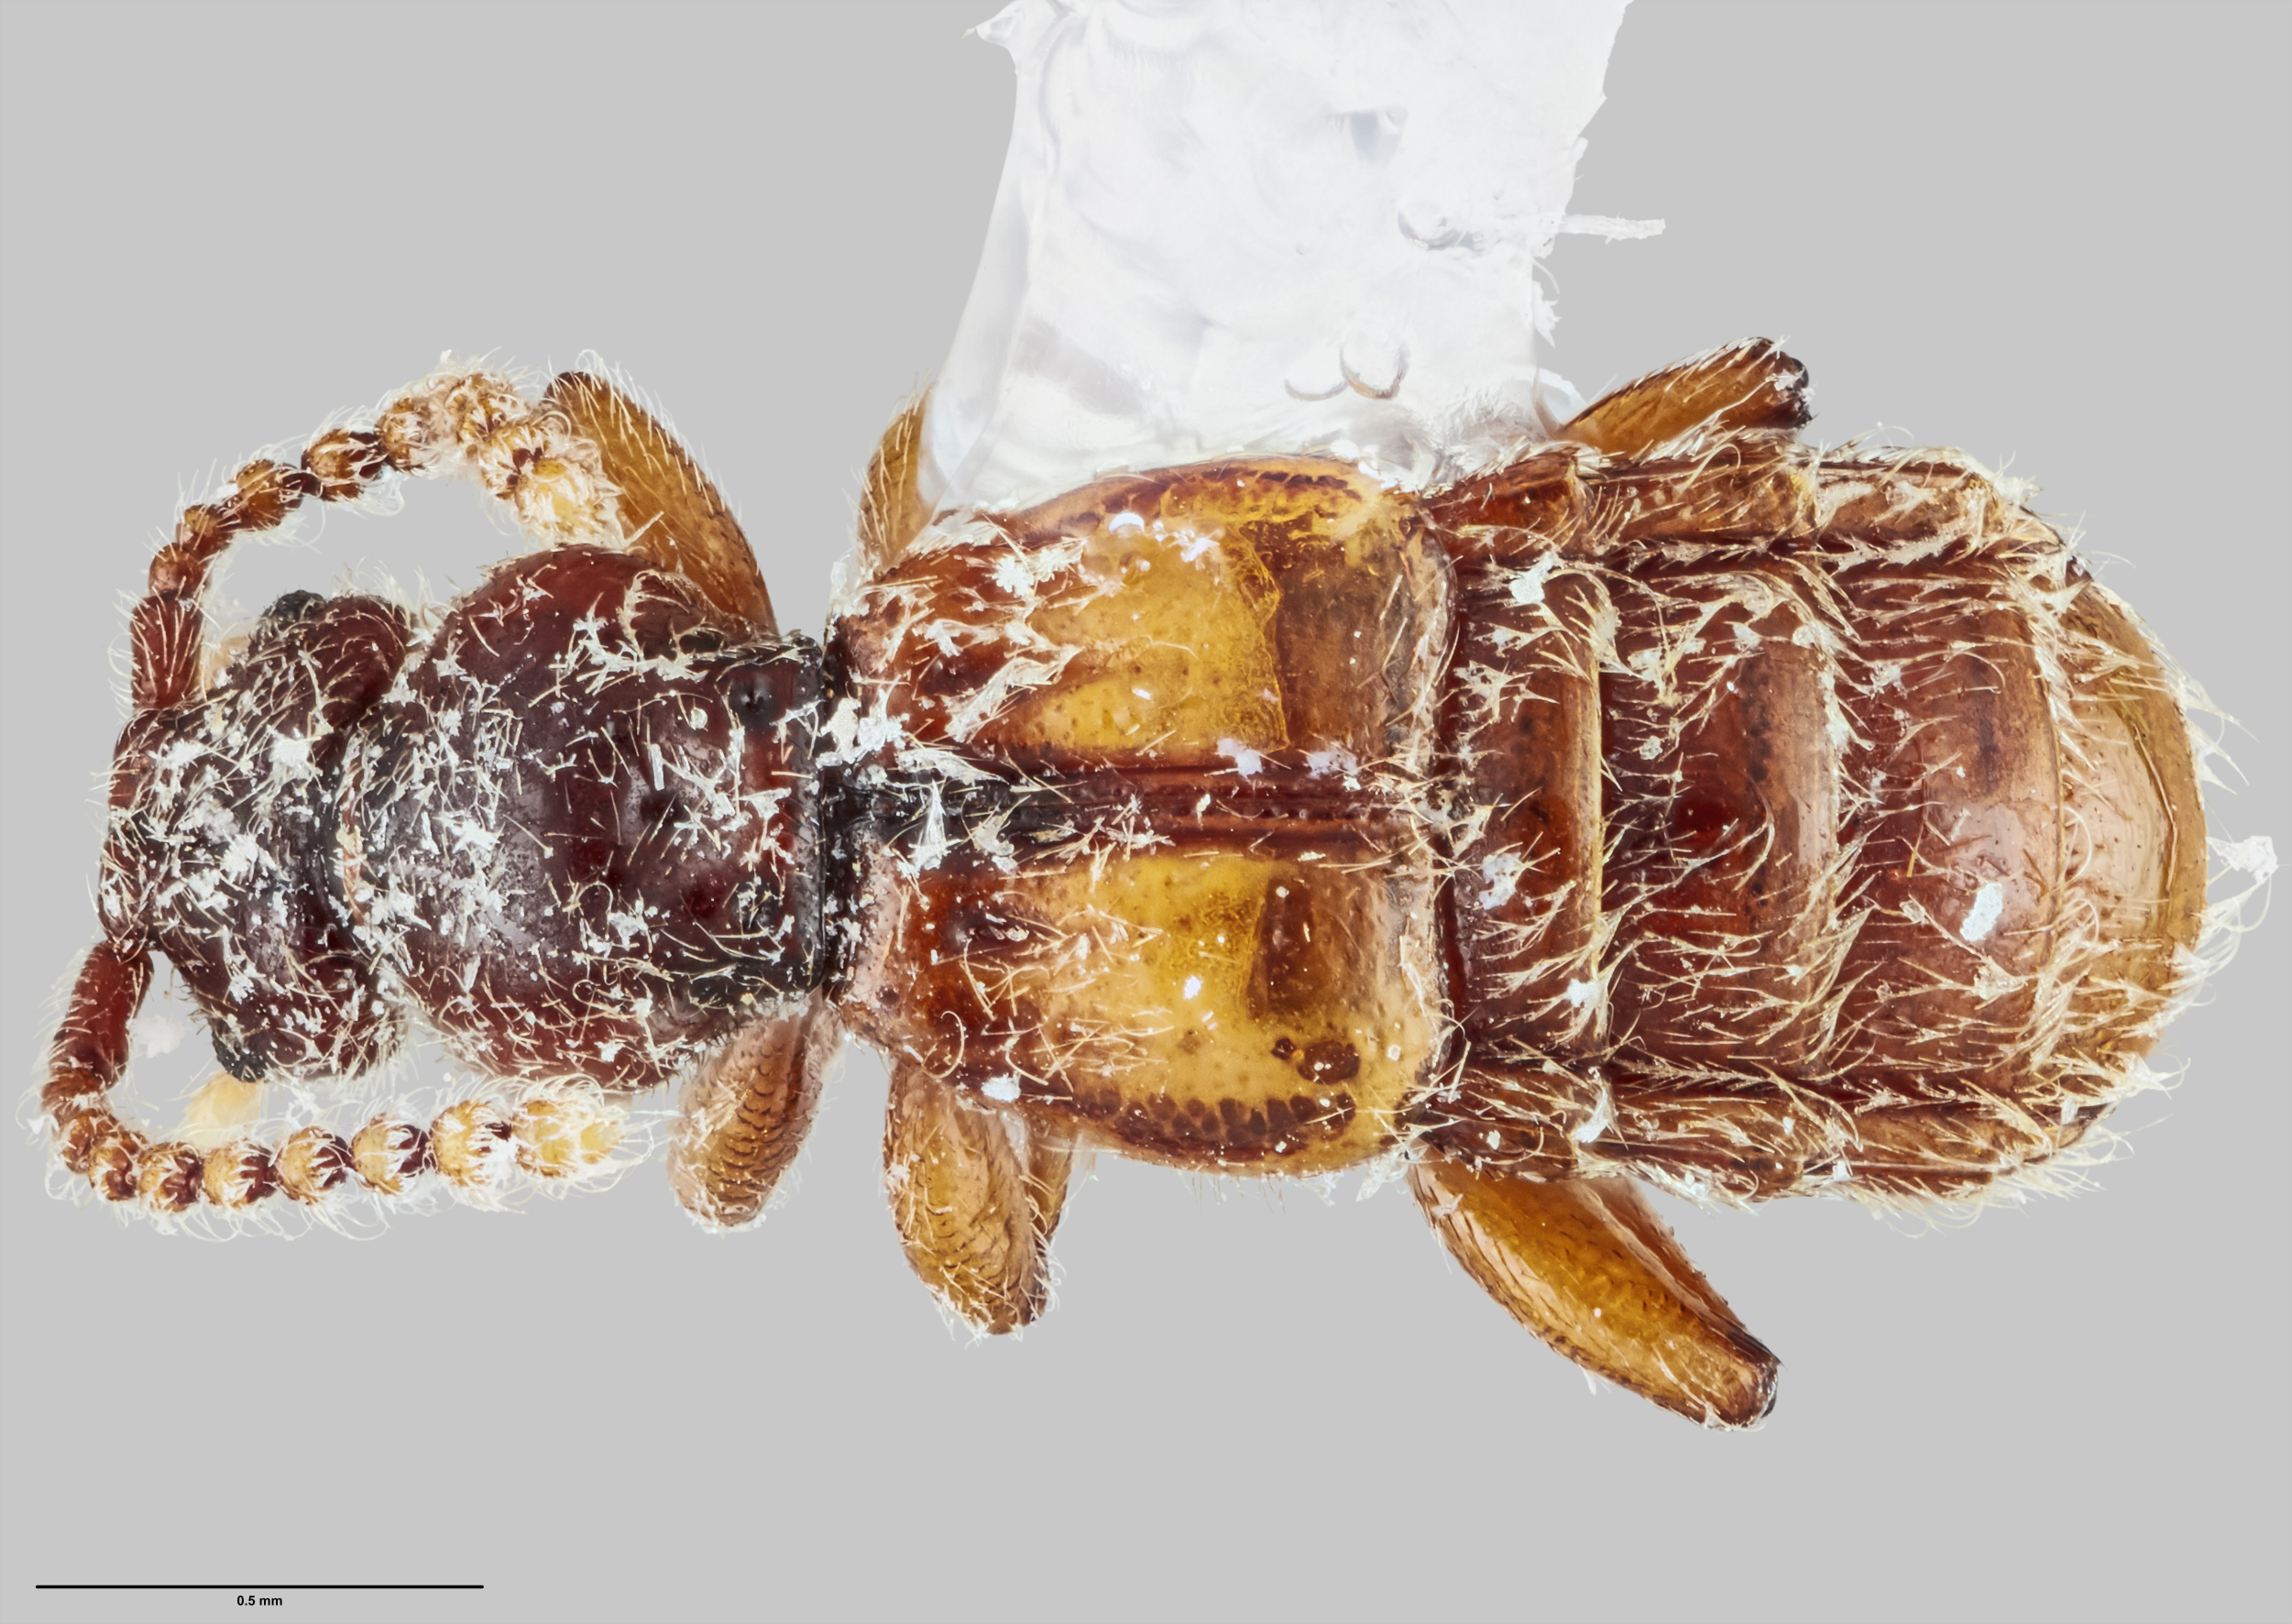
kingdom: Animalia
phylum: Arthropoda
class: Insecta
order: Coleoptera
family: Staphylinidae
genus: Sagola
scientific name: Sagola ranatungae
